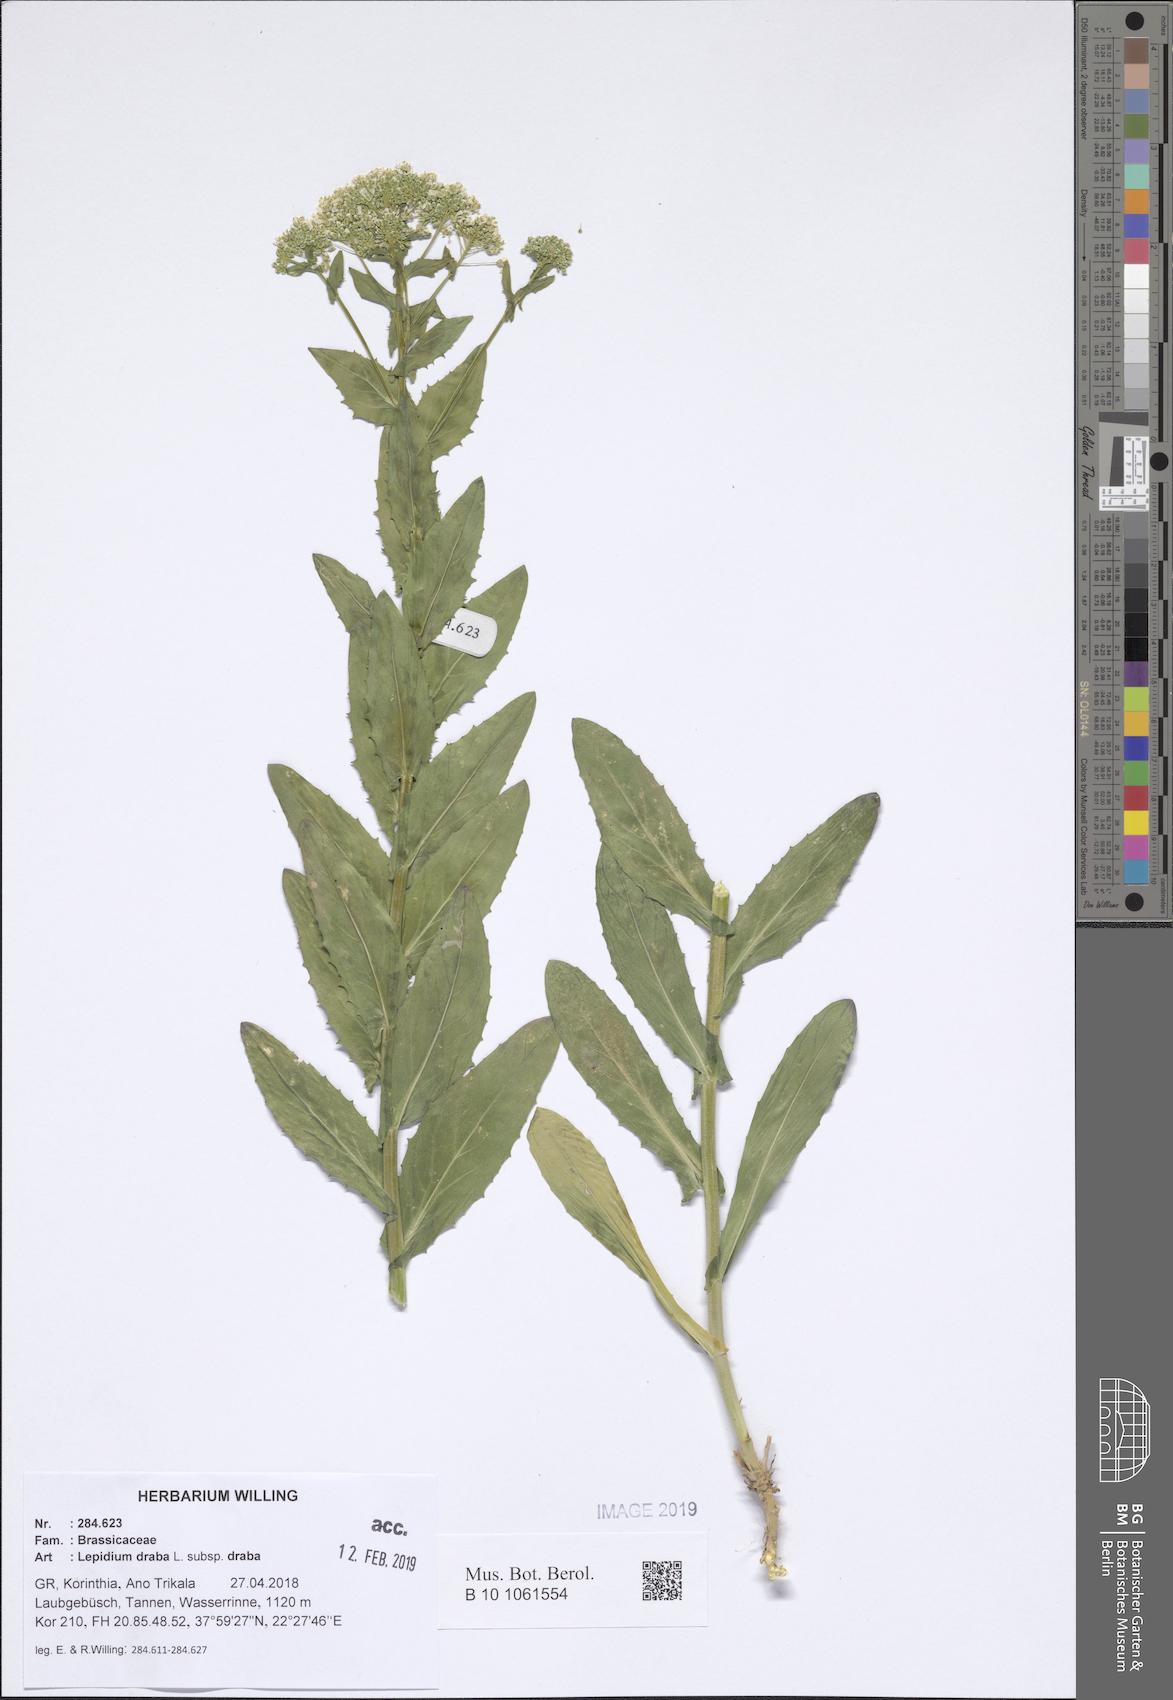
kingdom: Plantae
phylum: Tracheophyta
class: Magnoliopsida
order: Brassicales
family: Brassicaceae
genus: Lepidium
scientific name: Lepidium draba
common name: Hoary cress
